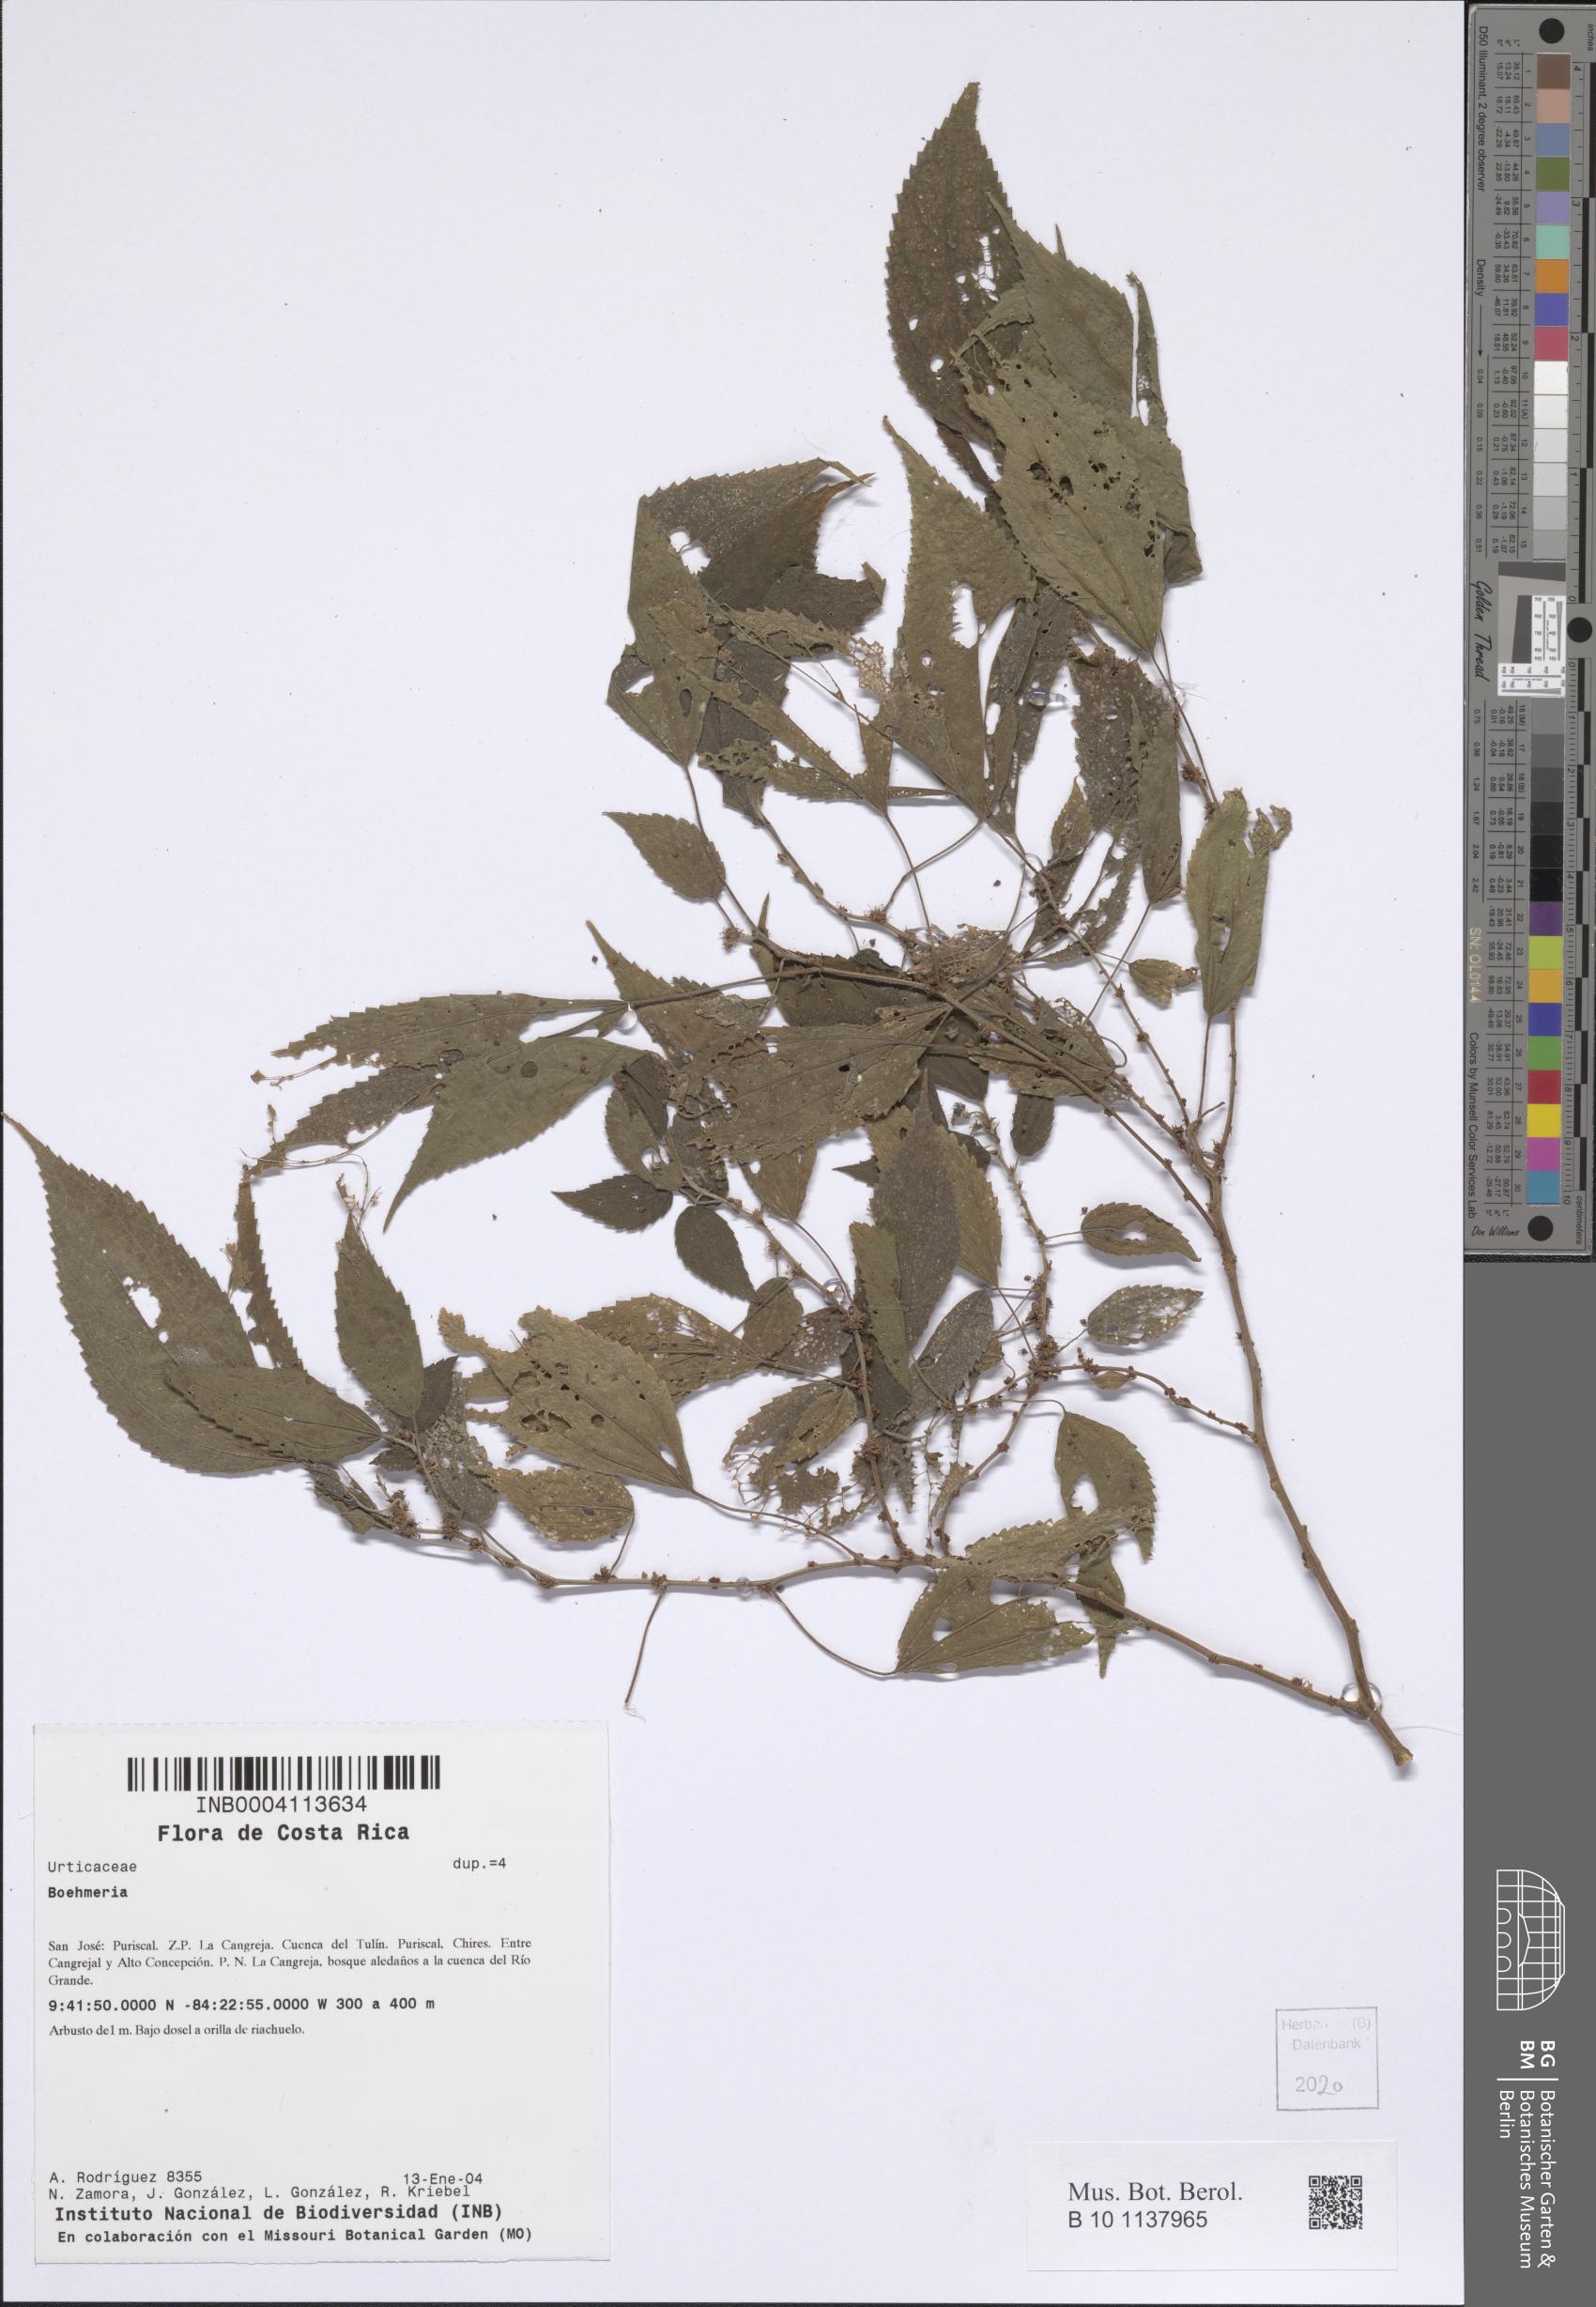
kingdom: Plantae
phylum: Tracheophyta
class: Magnoliopsida
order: Rosales
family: Urticaceae
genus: Boehmeria
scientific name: Boehmeria
